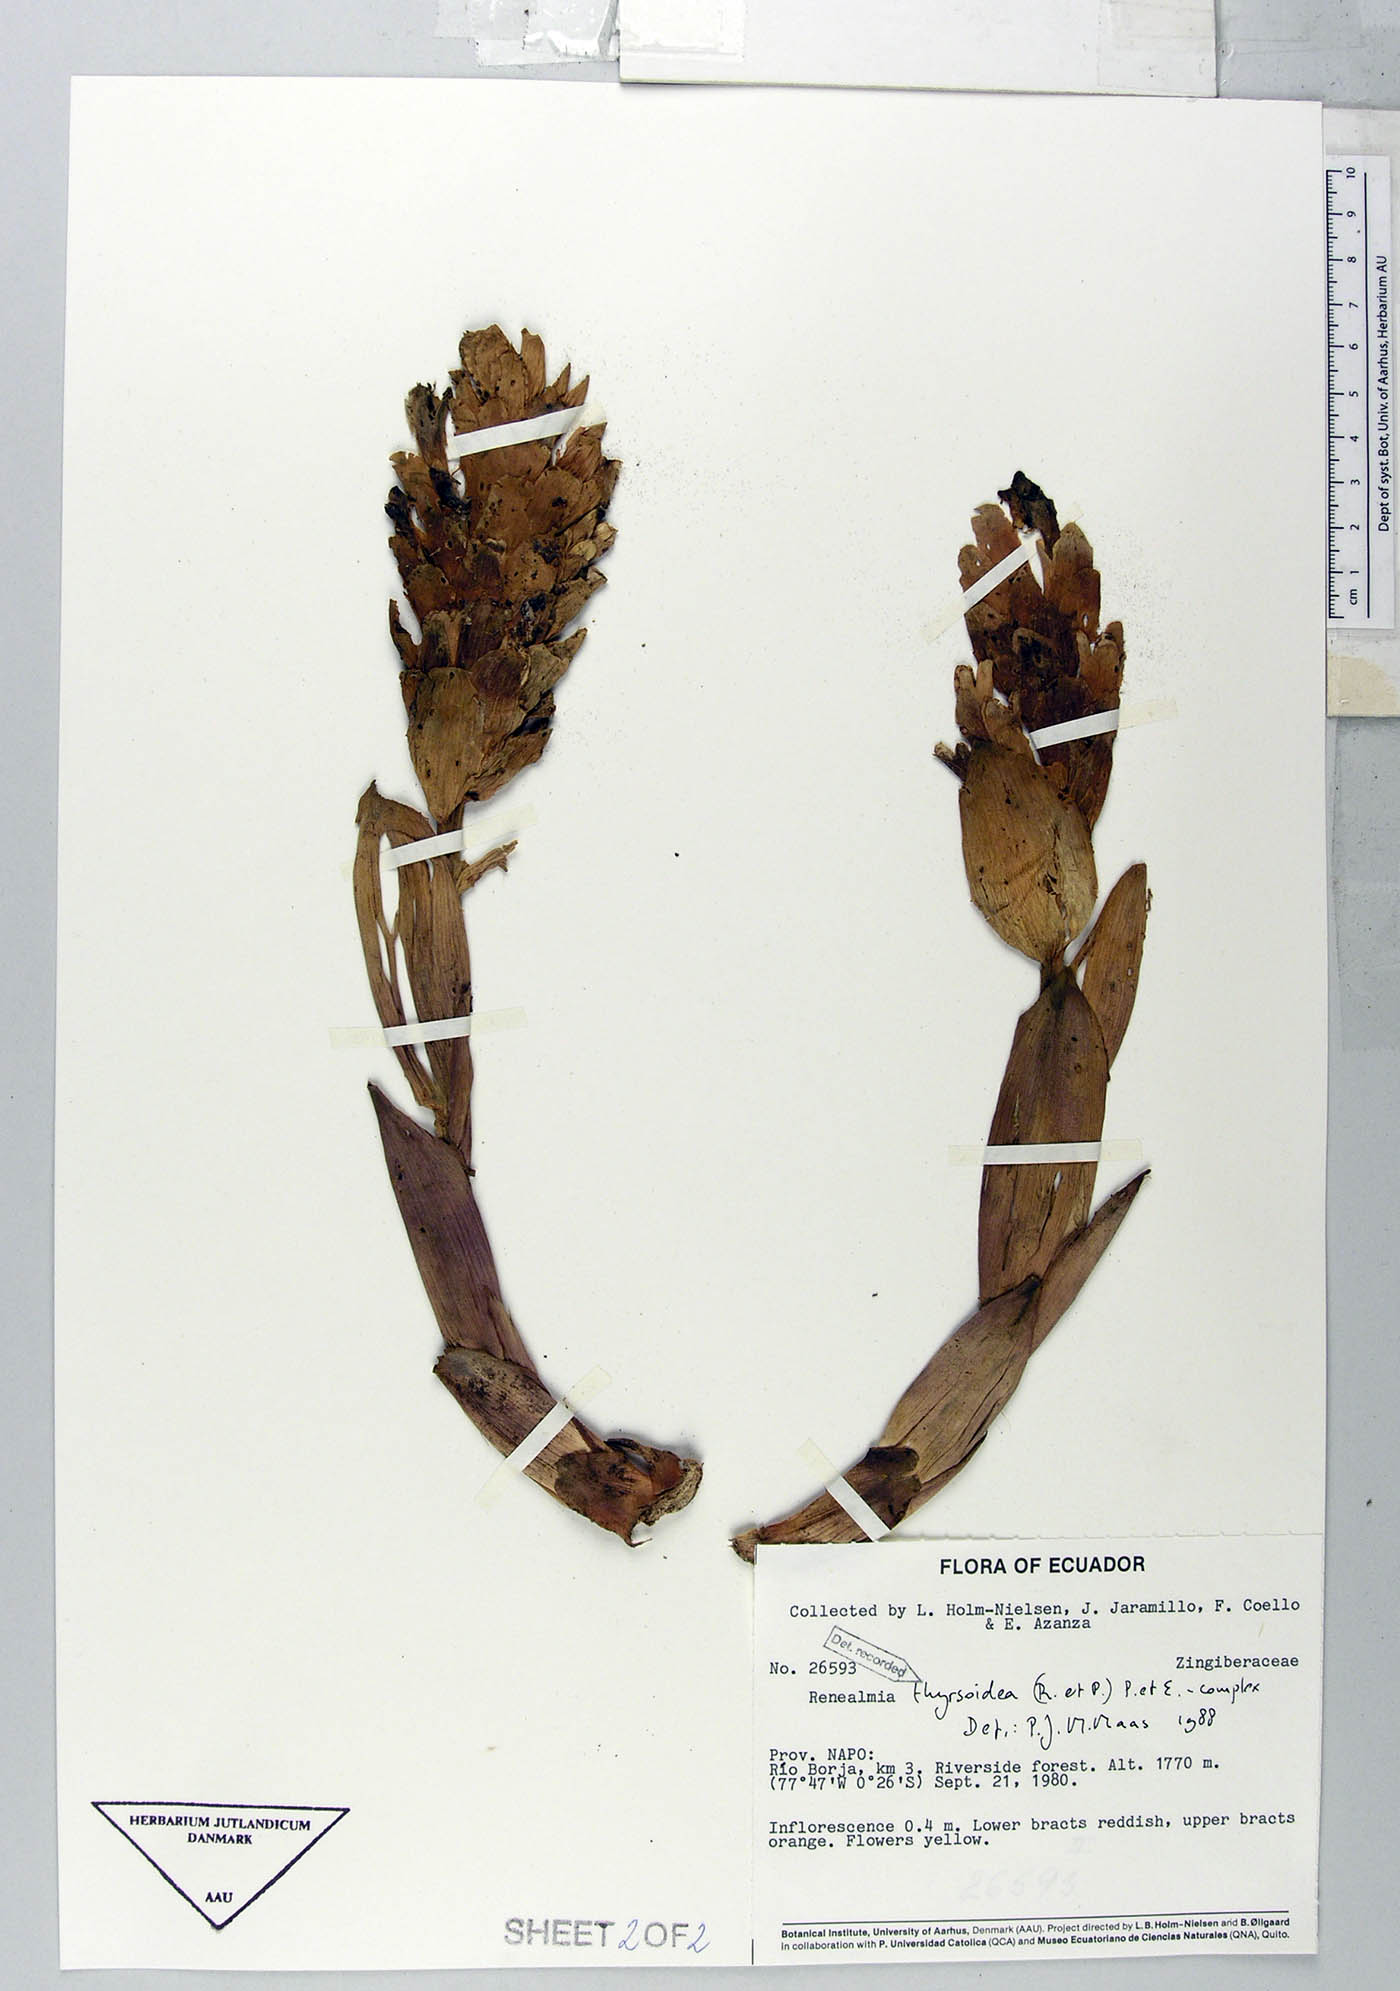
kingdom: Plantae
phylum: Tracheophyta
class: Liliopsida
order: Zingiberales
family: Zingiberaceae
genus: Renealmia
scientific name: Renealmia thyrsoidea
